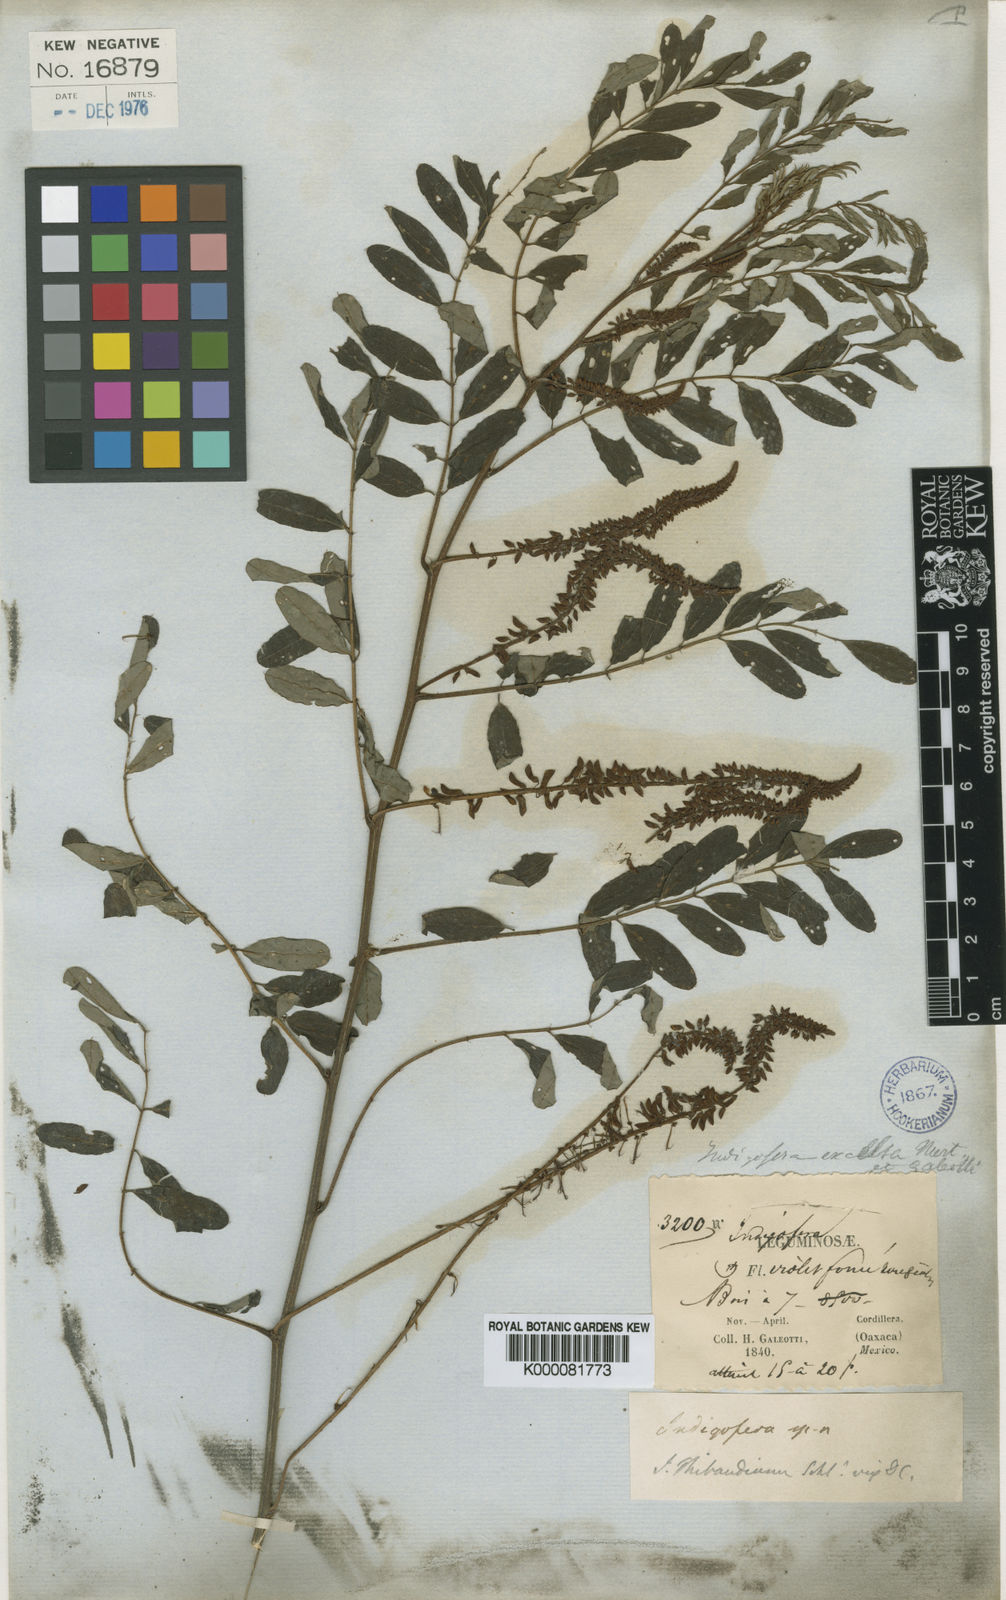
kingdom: Plantae
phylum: Tracheophyta
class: Magnoliopsida
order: Fabales
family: Fabaceae
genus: Indigofera
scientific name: Indigofera thibaudiana
